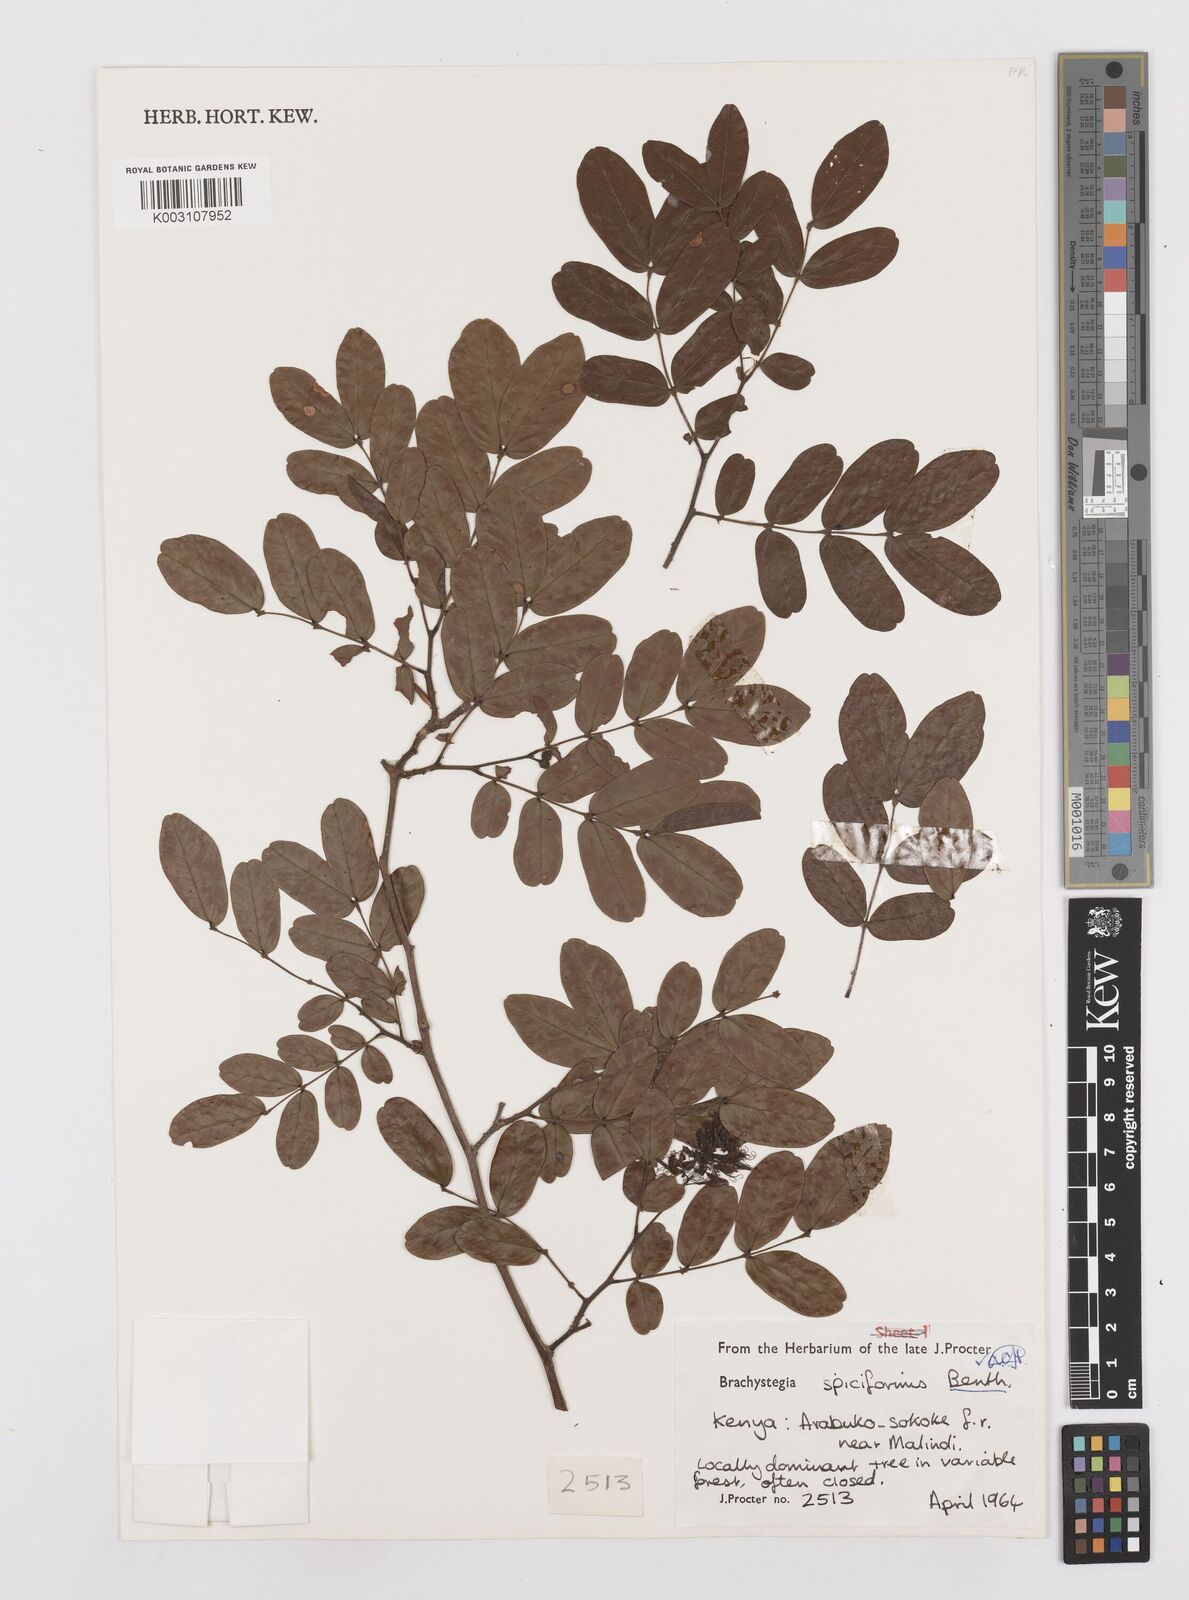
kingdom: Plantae
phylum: Tracheophyta
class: Magnoliopsida
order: Fabales
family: Fabaceae
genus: Brachystegia
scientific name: Brachystegia spiciformis
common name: Zebrawood
